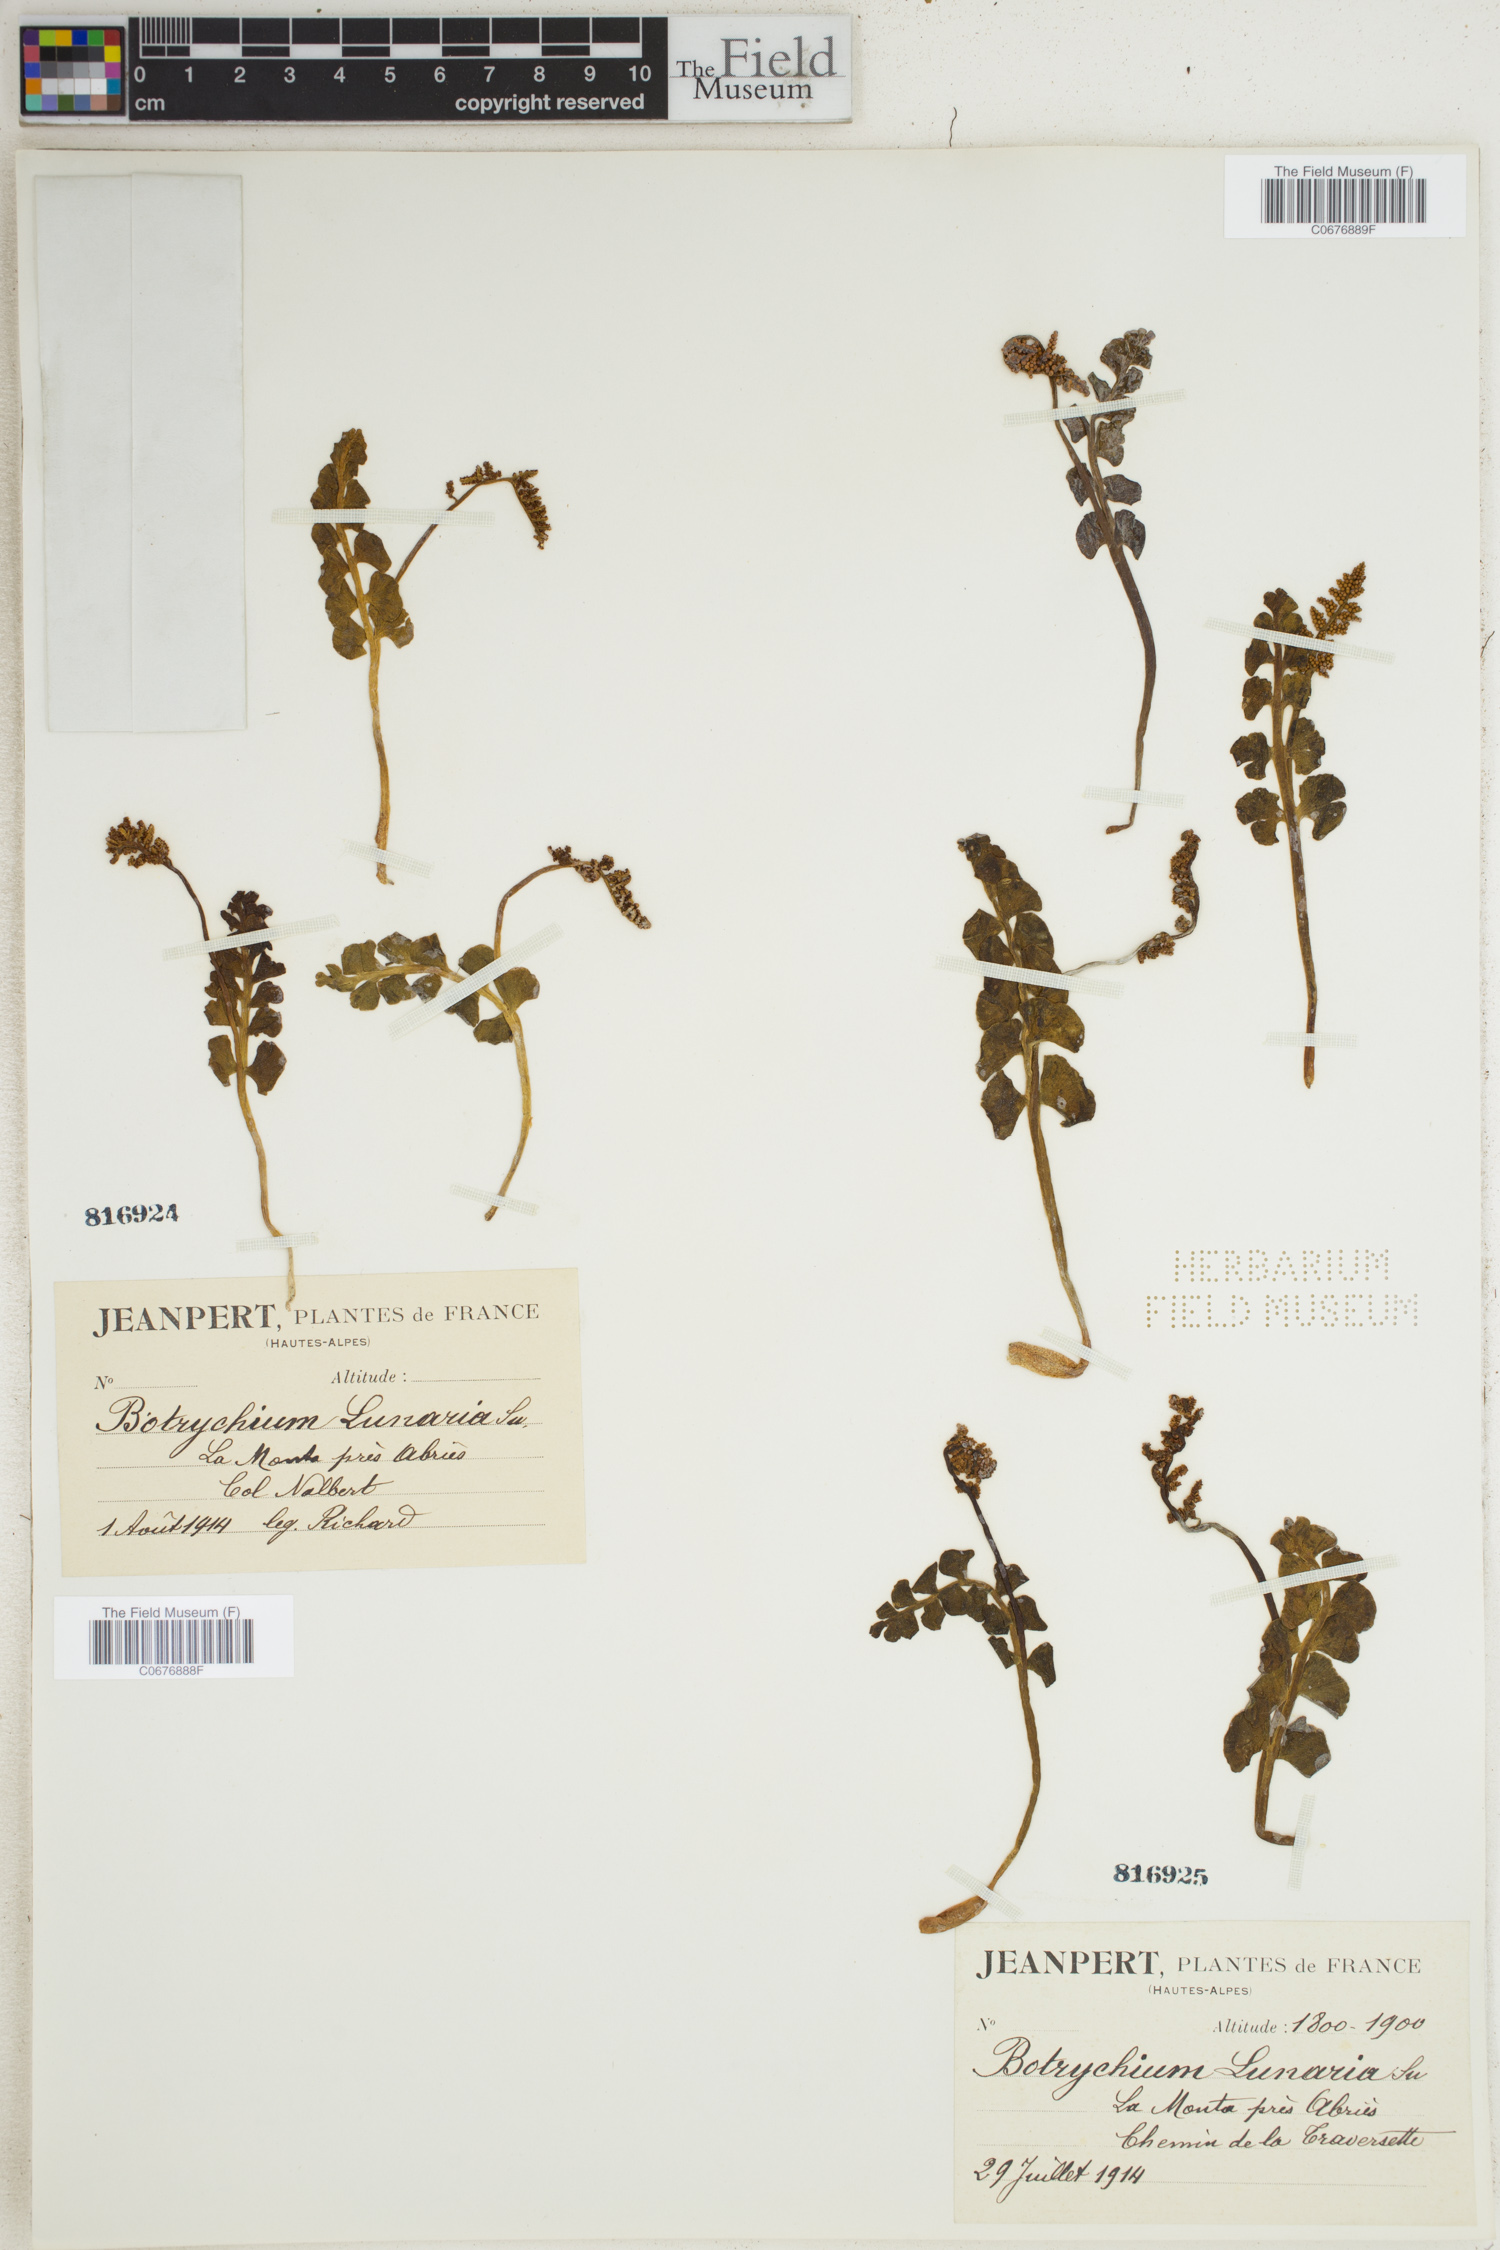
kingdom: Plantae
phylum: Tracheophyta
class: Polypodiopsida
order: Ophioglossales
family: Ophioglossaceae
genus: Botrychium
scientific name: Botrychium lunaria
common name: Moonwort
